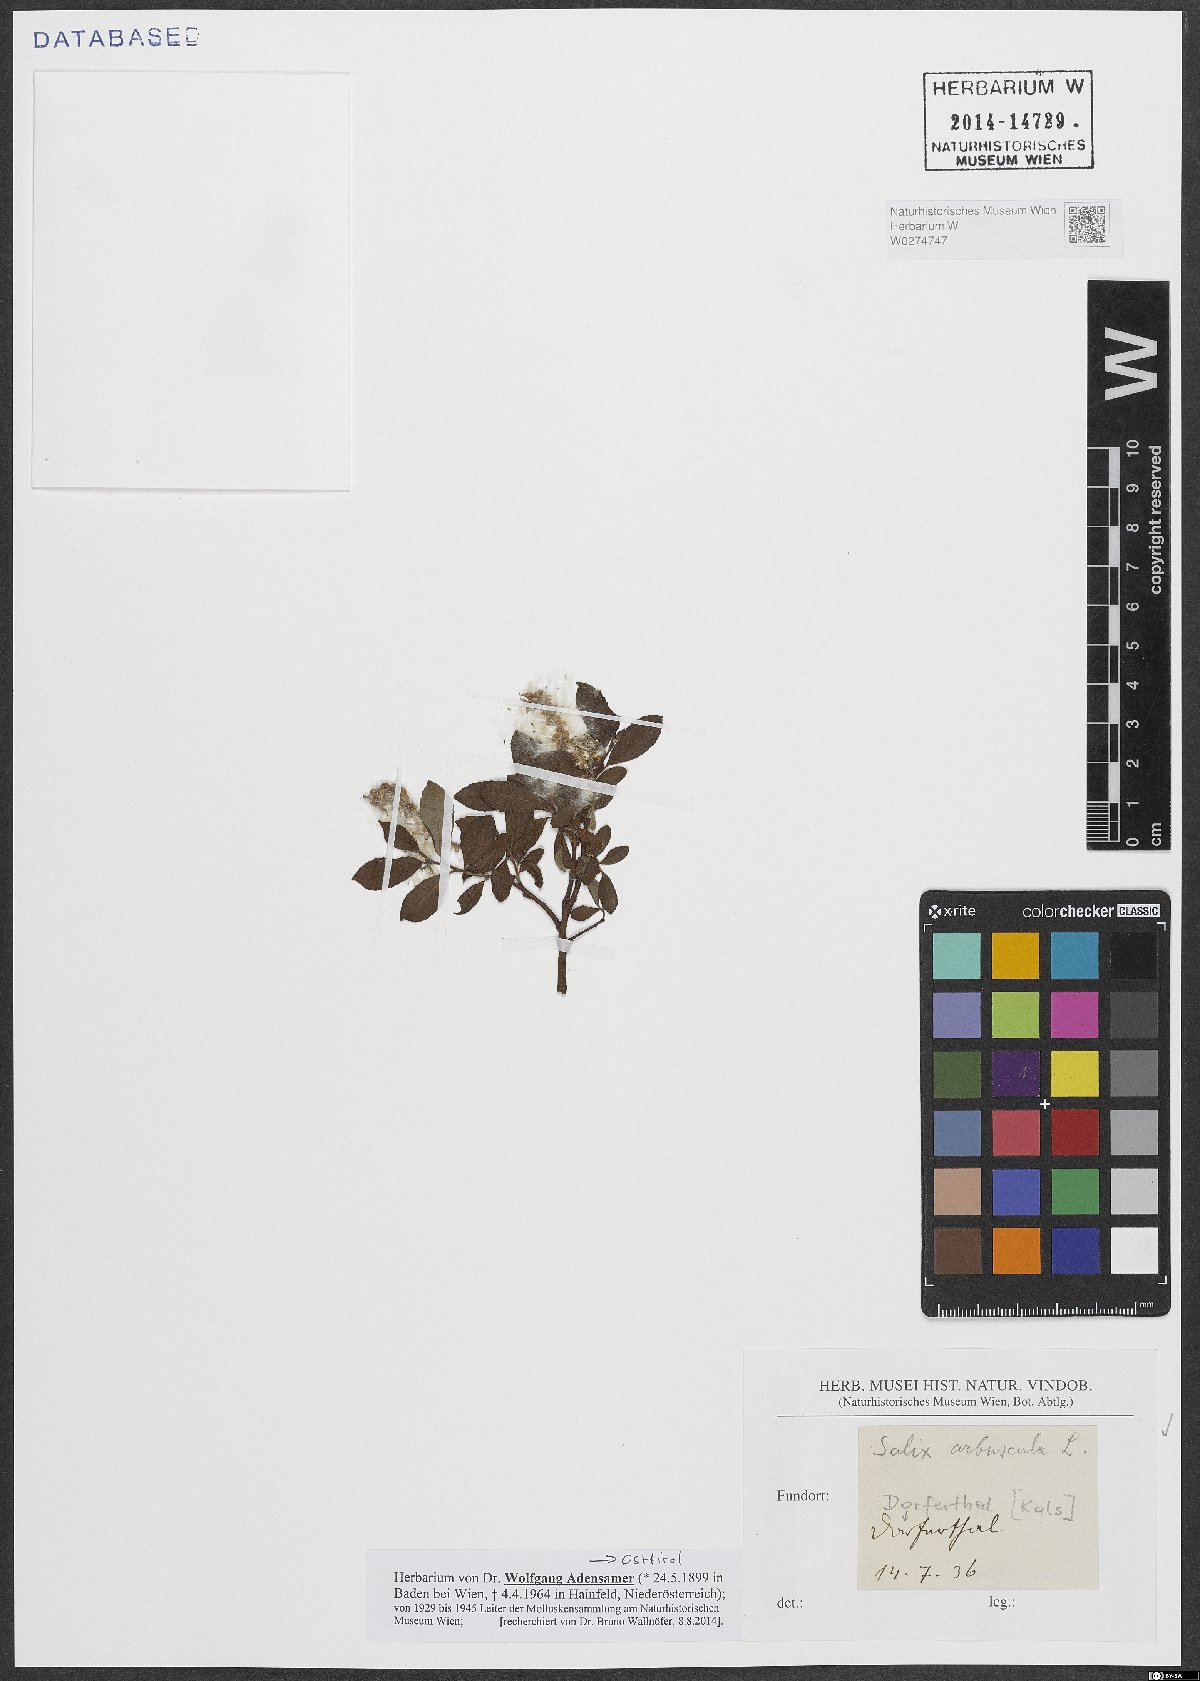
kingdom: Plantae
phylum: Tracheophyta
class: Magnoliopsida
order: Malpighiales
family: Salicaceae
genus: Salix
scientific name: Salix arbuscula
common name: Mountain willow
